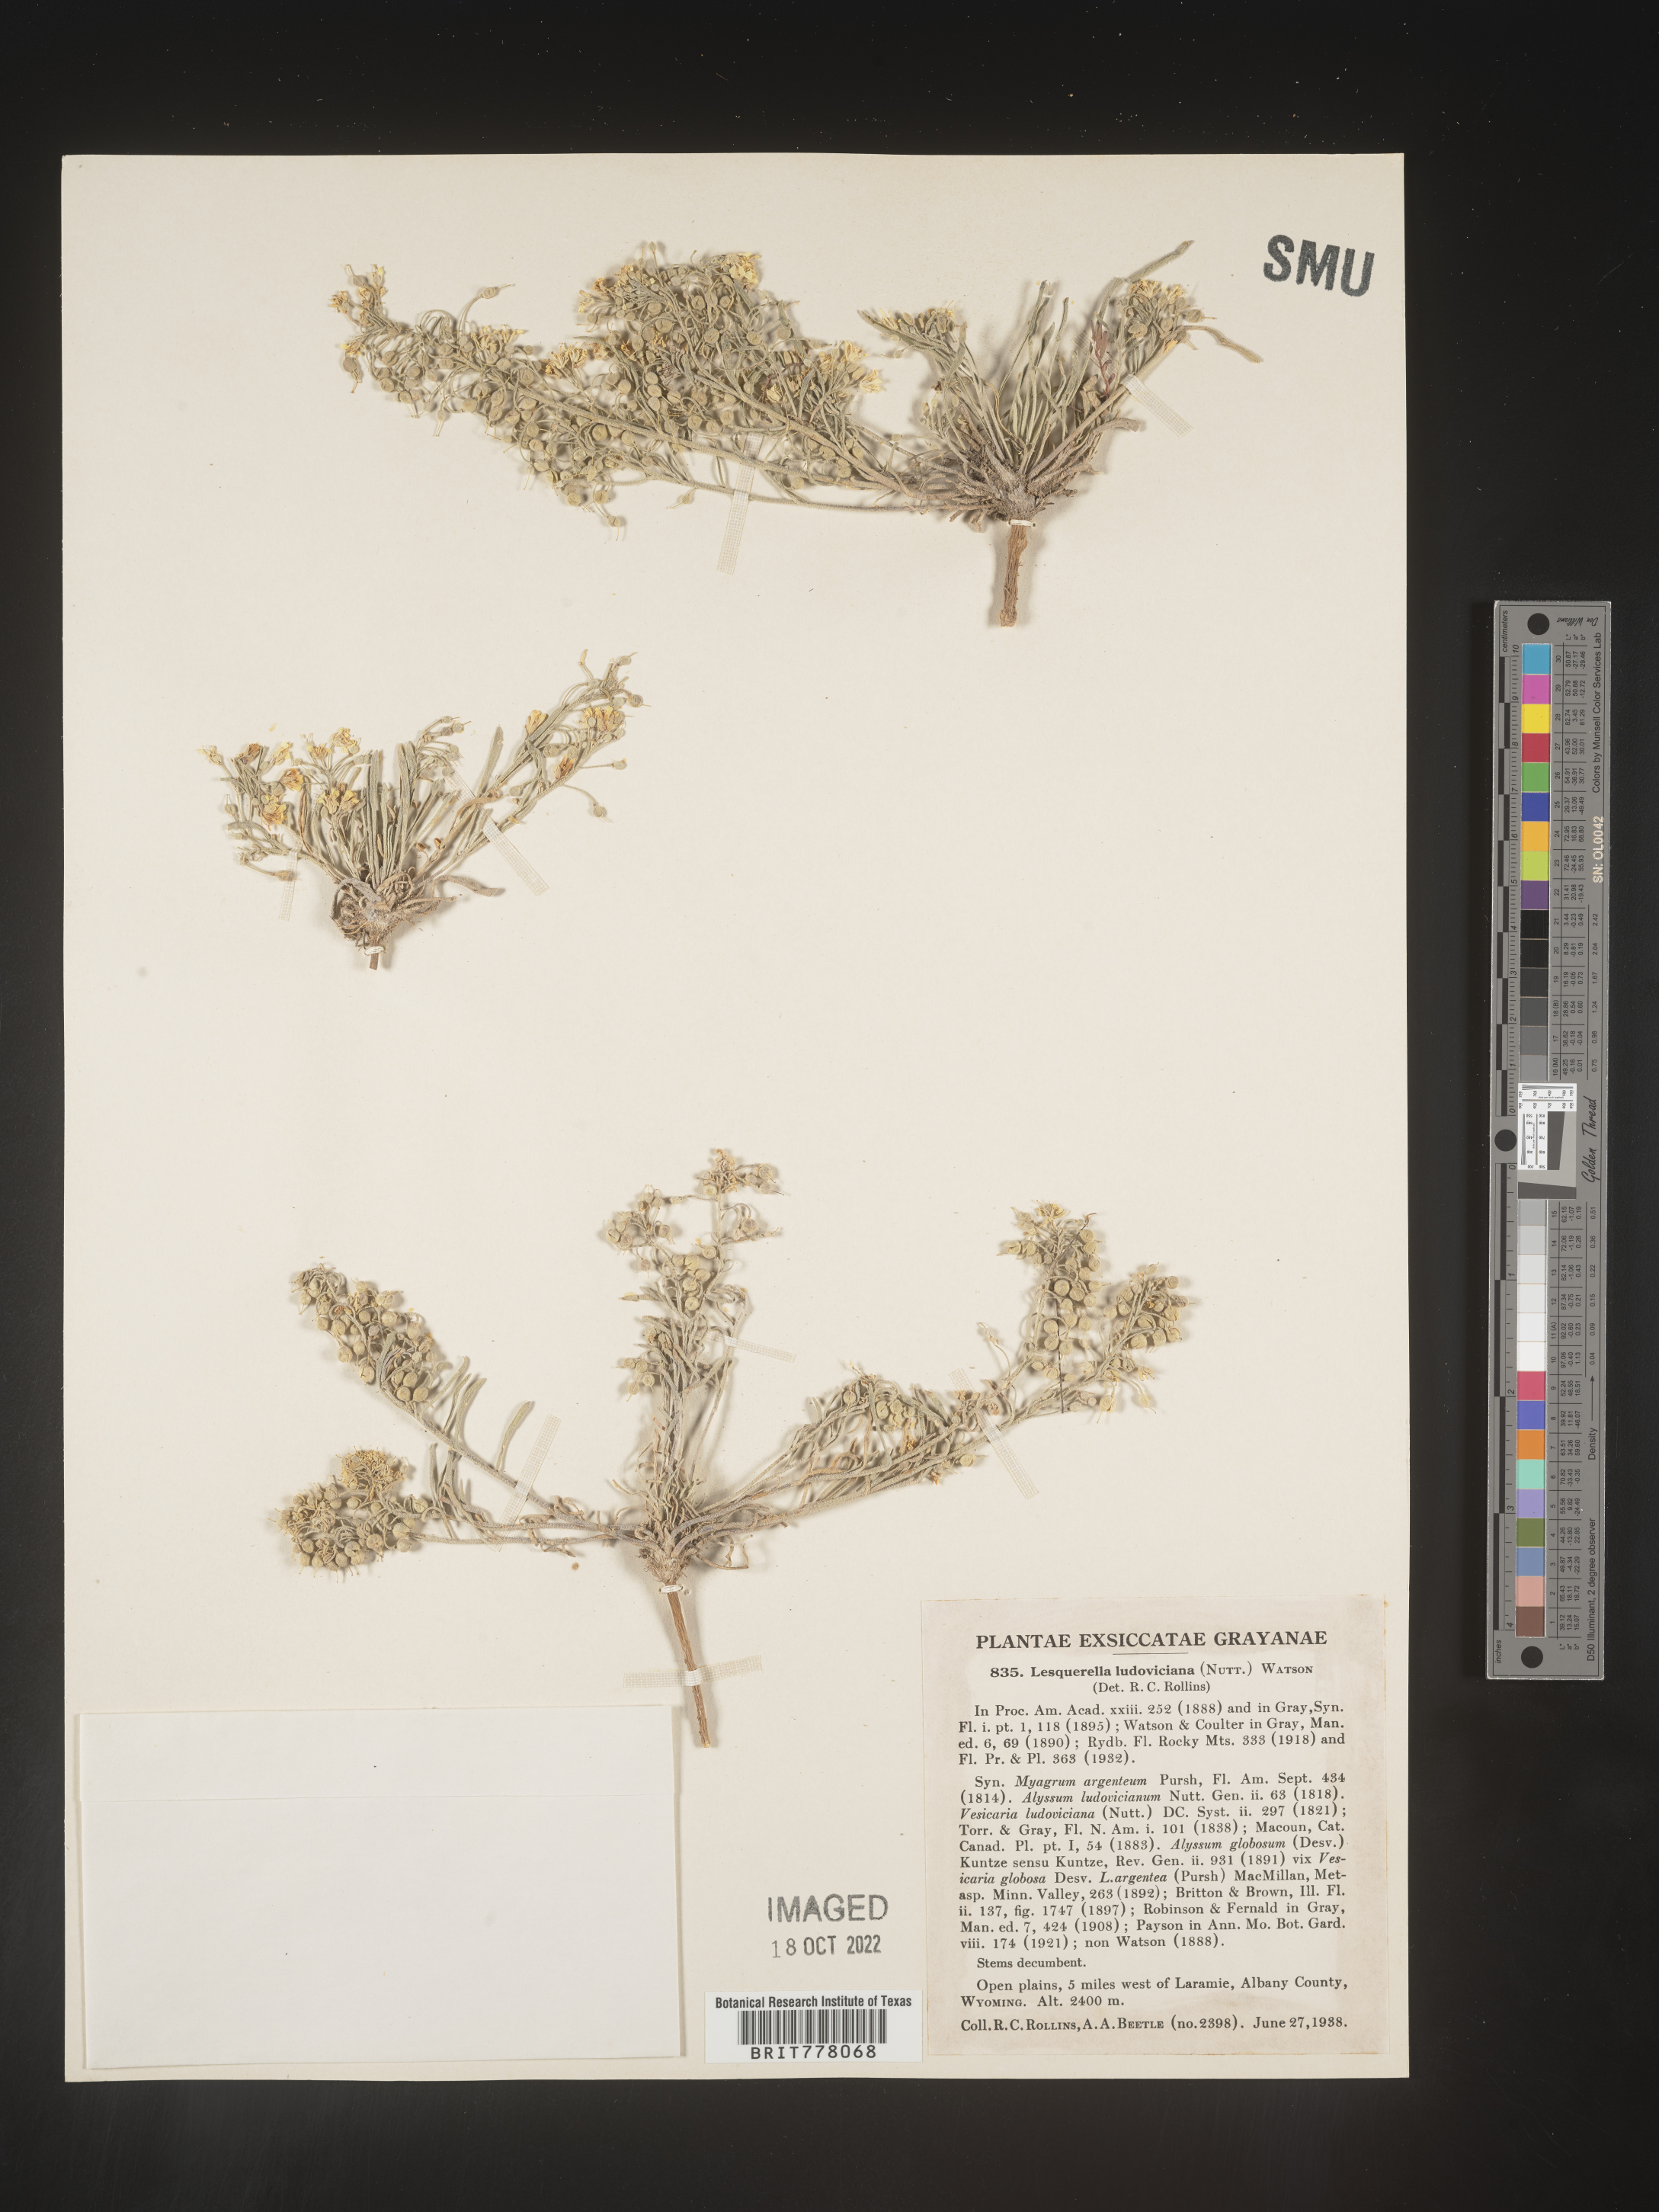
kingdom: Chromista
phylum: Cercozoa
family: Psammonobiotidae
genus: Lesquerella
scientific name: Lesquerella
